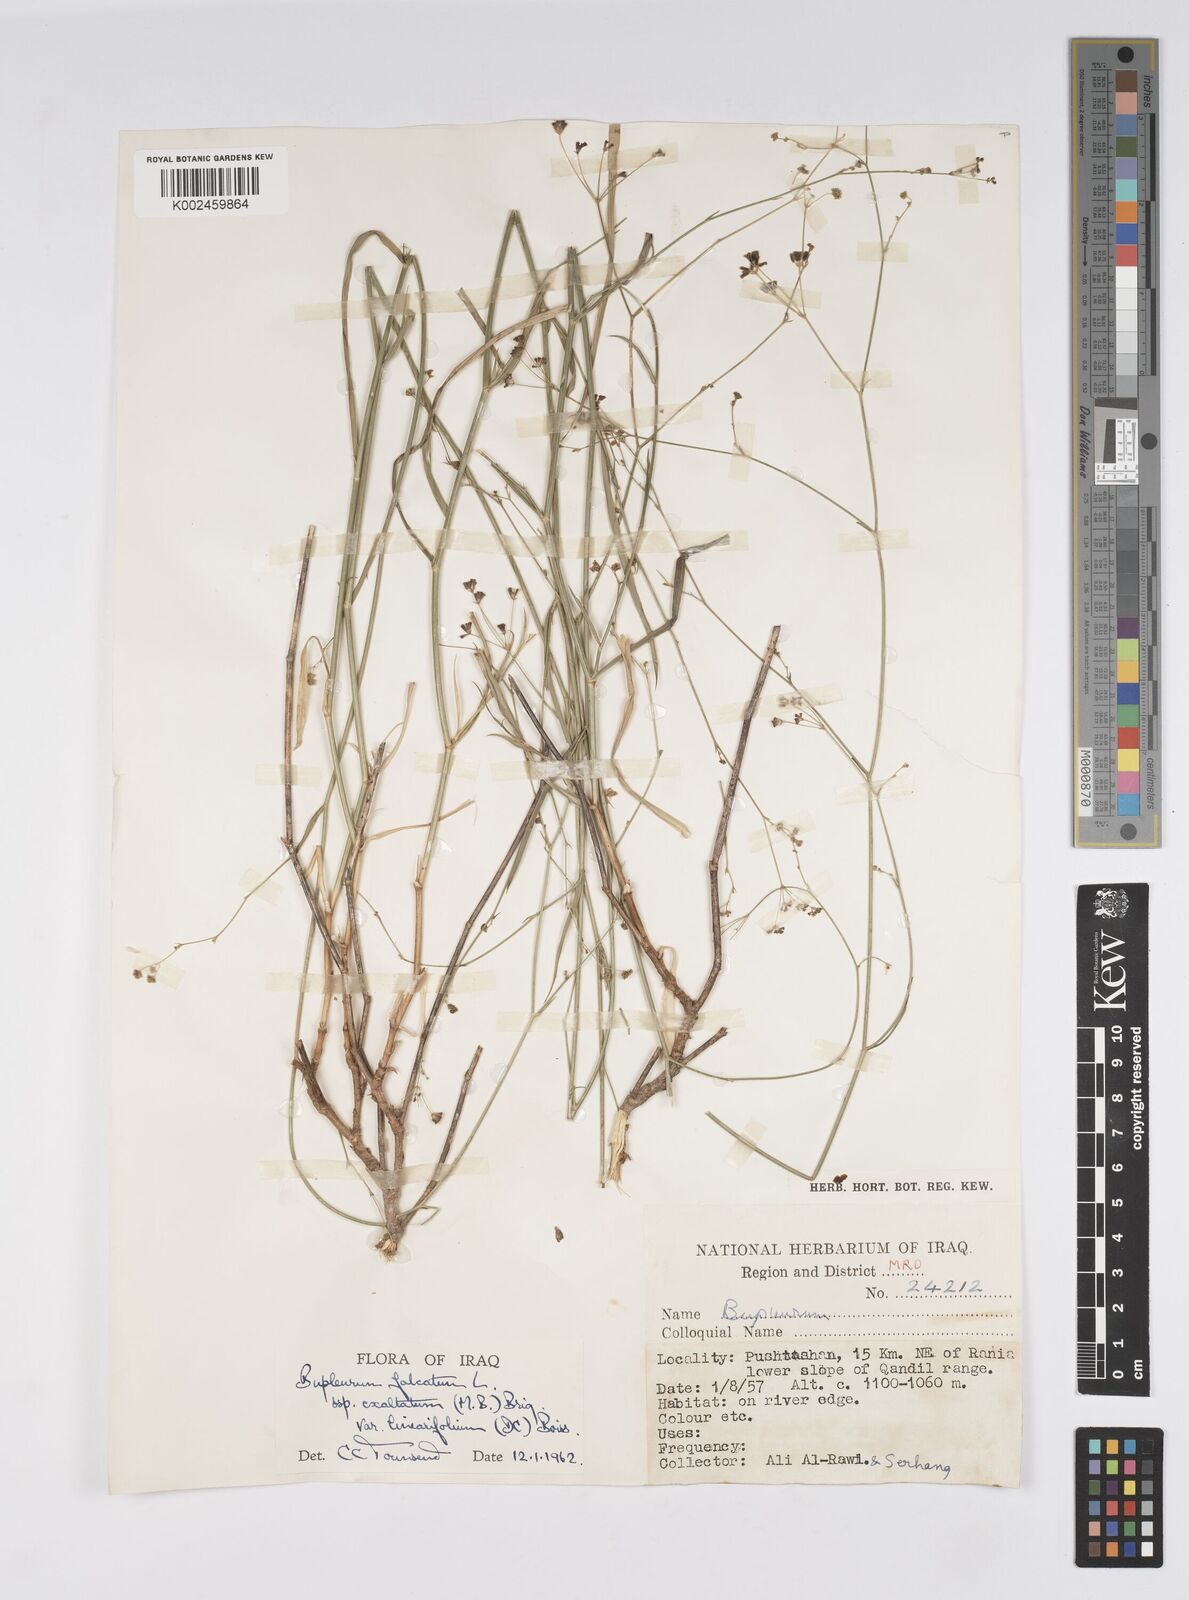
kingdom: Plantae
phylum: Tracheophyta
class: Magnoliopsida
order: Apiales
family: Apiaceae
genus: Bupleurum
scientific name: Bupleurum falcatum
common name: Sickle-leaved hare's-ear
